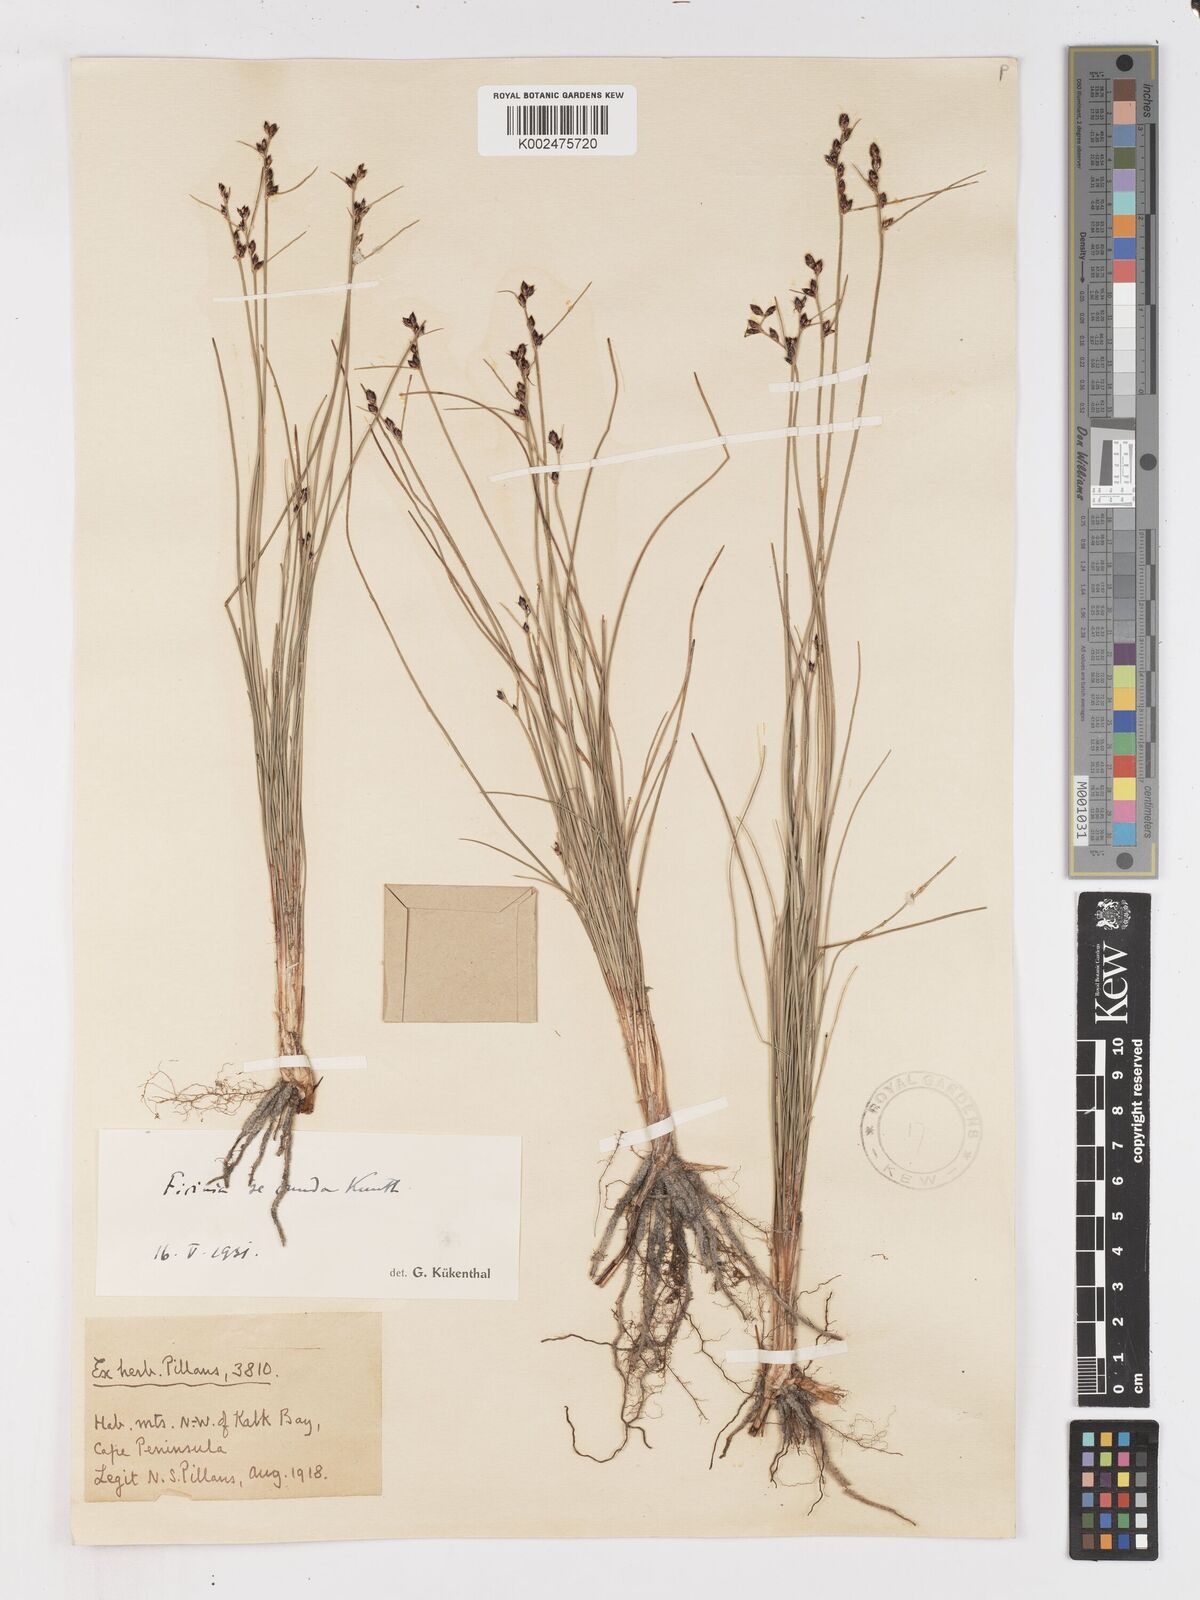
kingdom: Plantae
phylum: Tracheophyta
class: Liliopsida
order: Poales
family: Cyperaceae
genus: Ficinia
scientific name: Ficinia secunda
